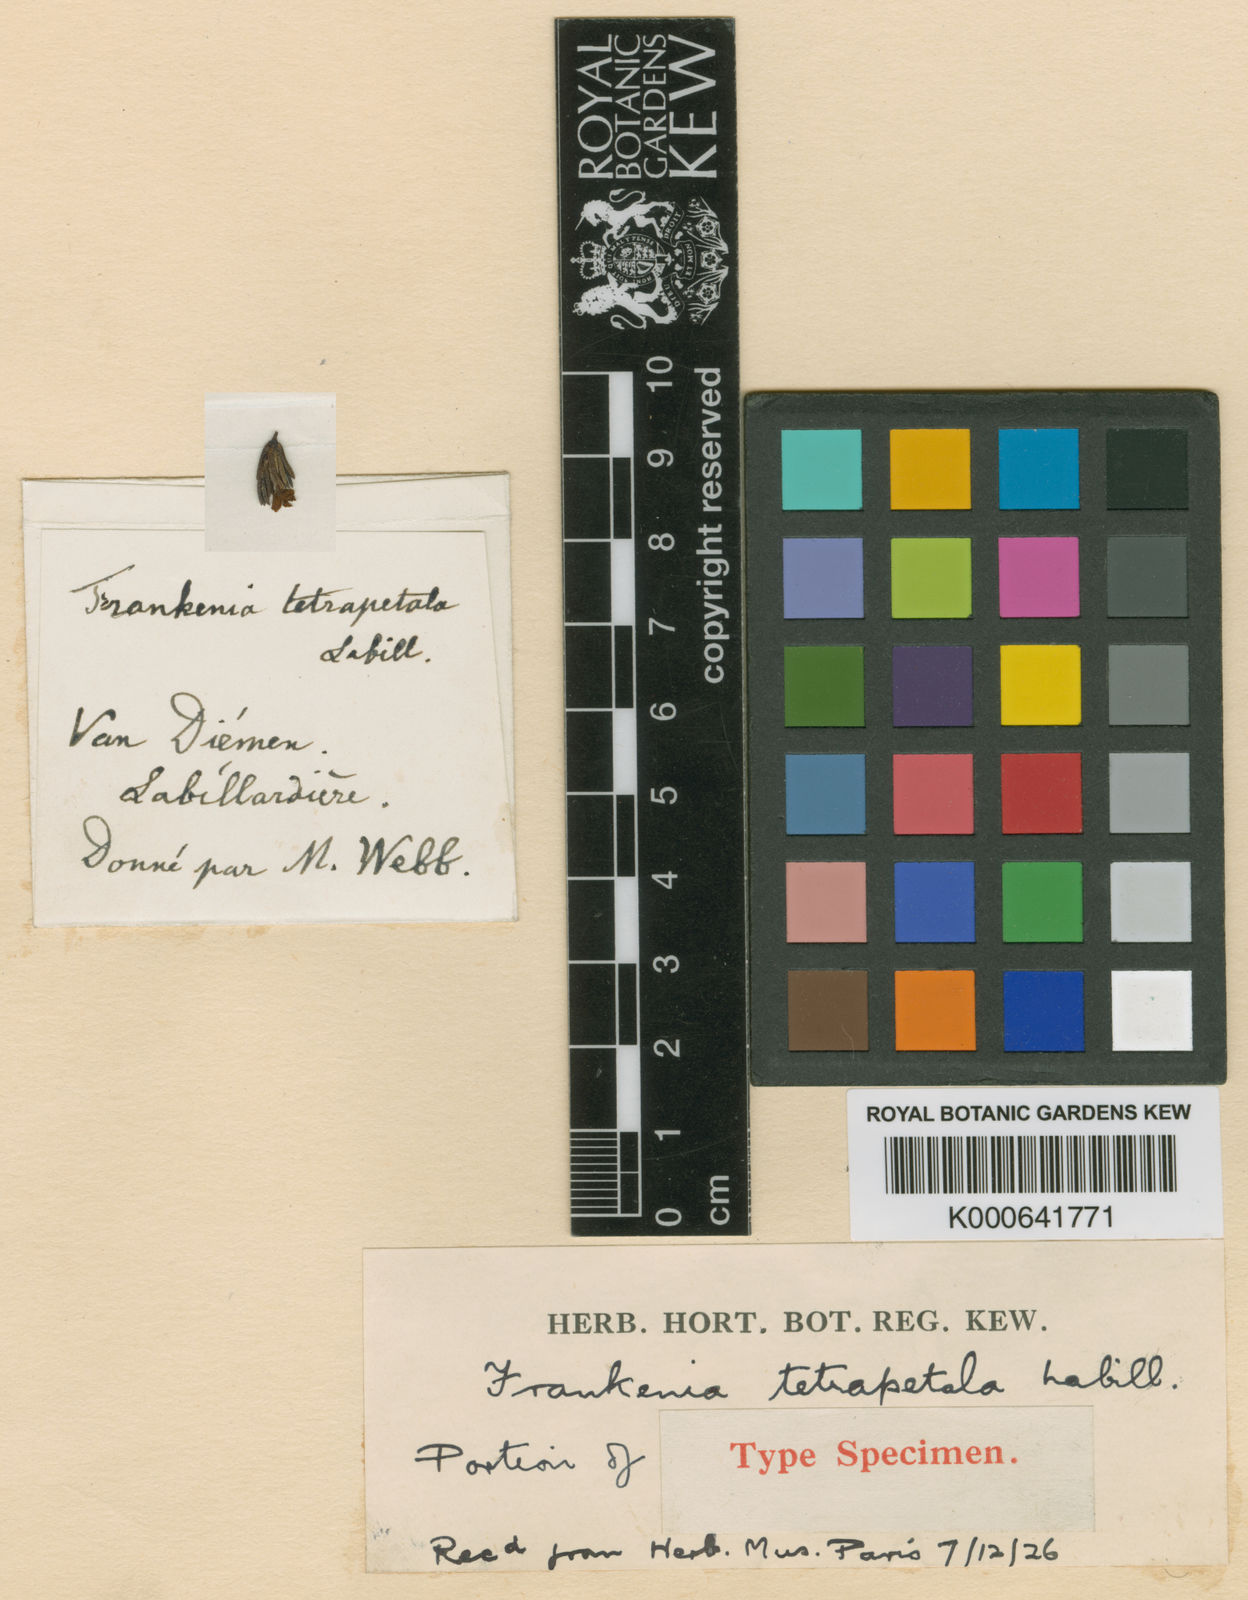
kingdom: Plantae
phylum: Tracheophyta
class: Magnoliopsida
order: Caryophyllales
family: Frankeniaceae
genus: Frankenia
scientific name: Frankenia tetrapetala
